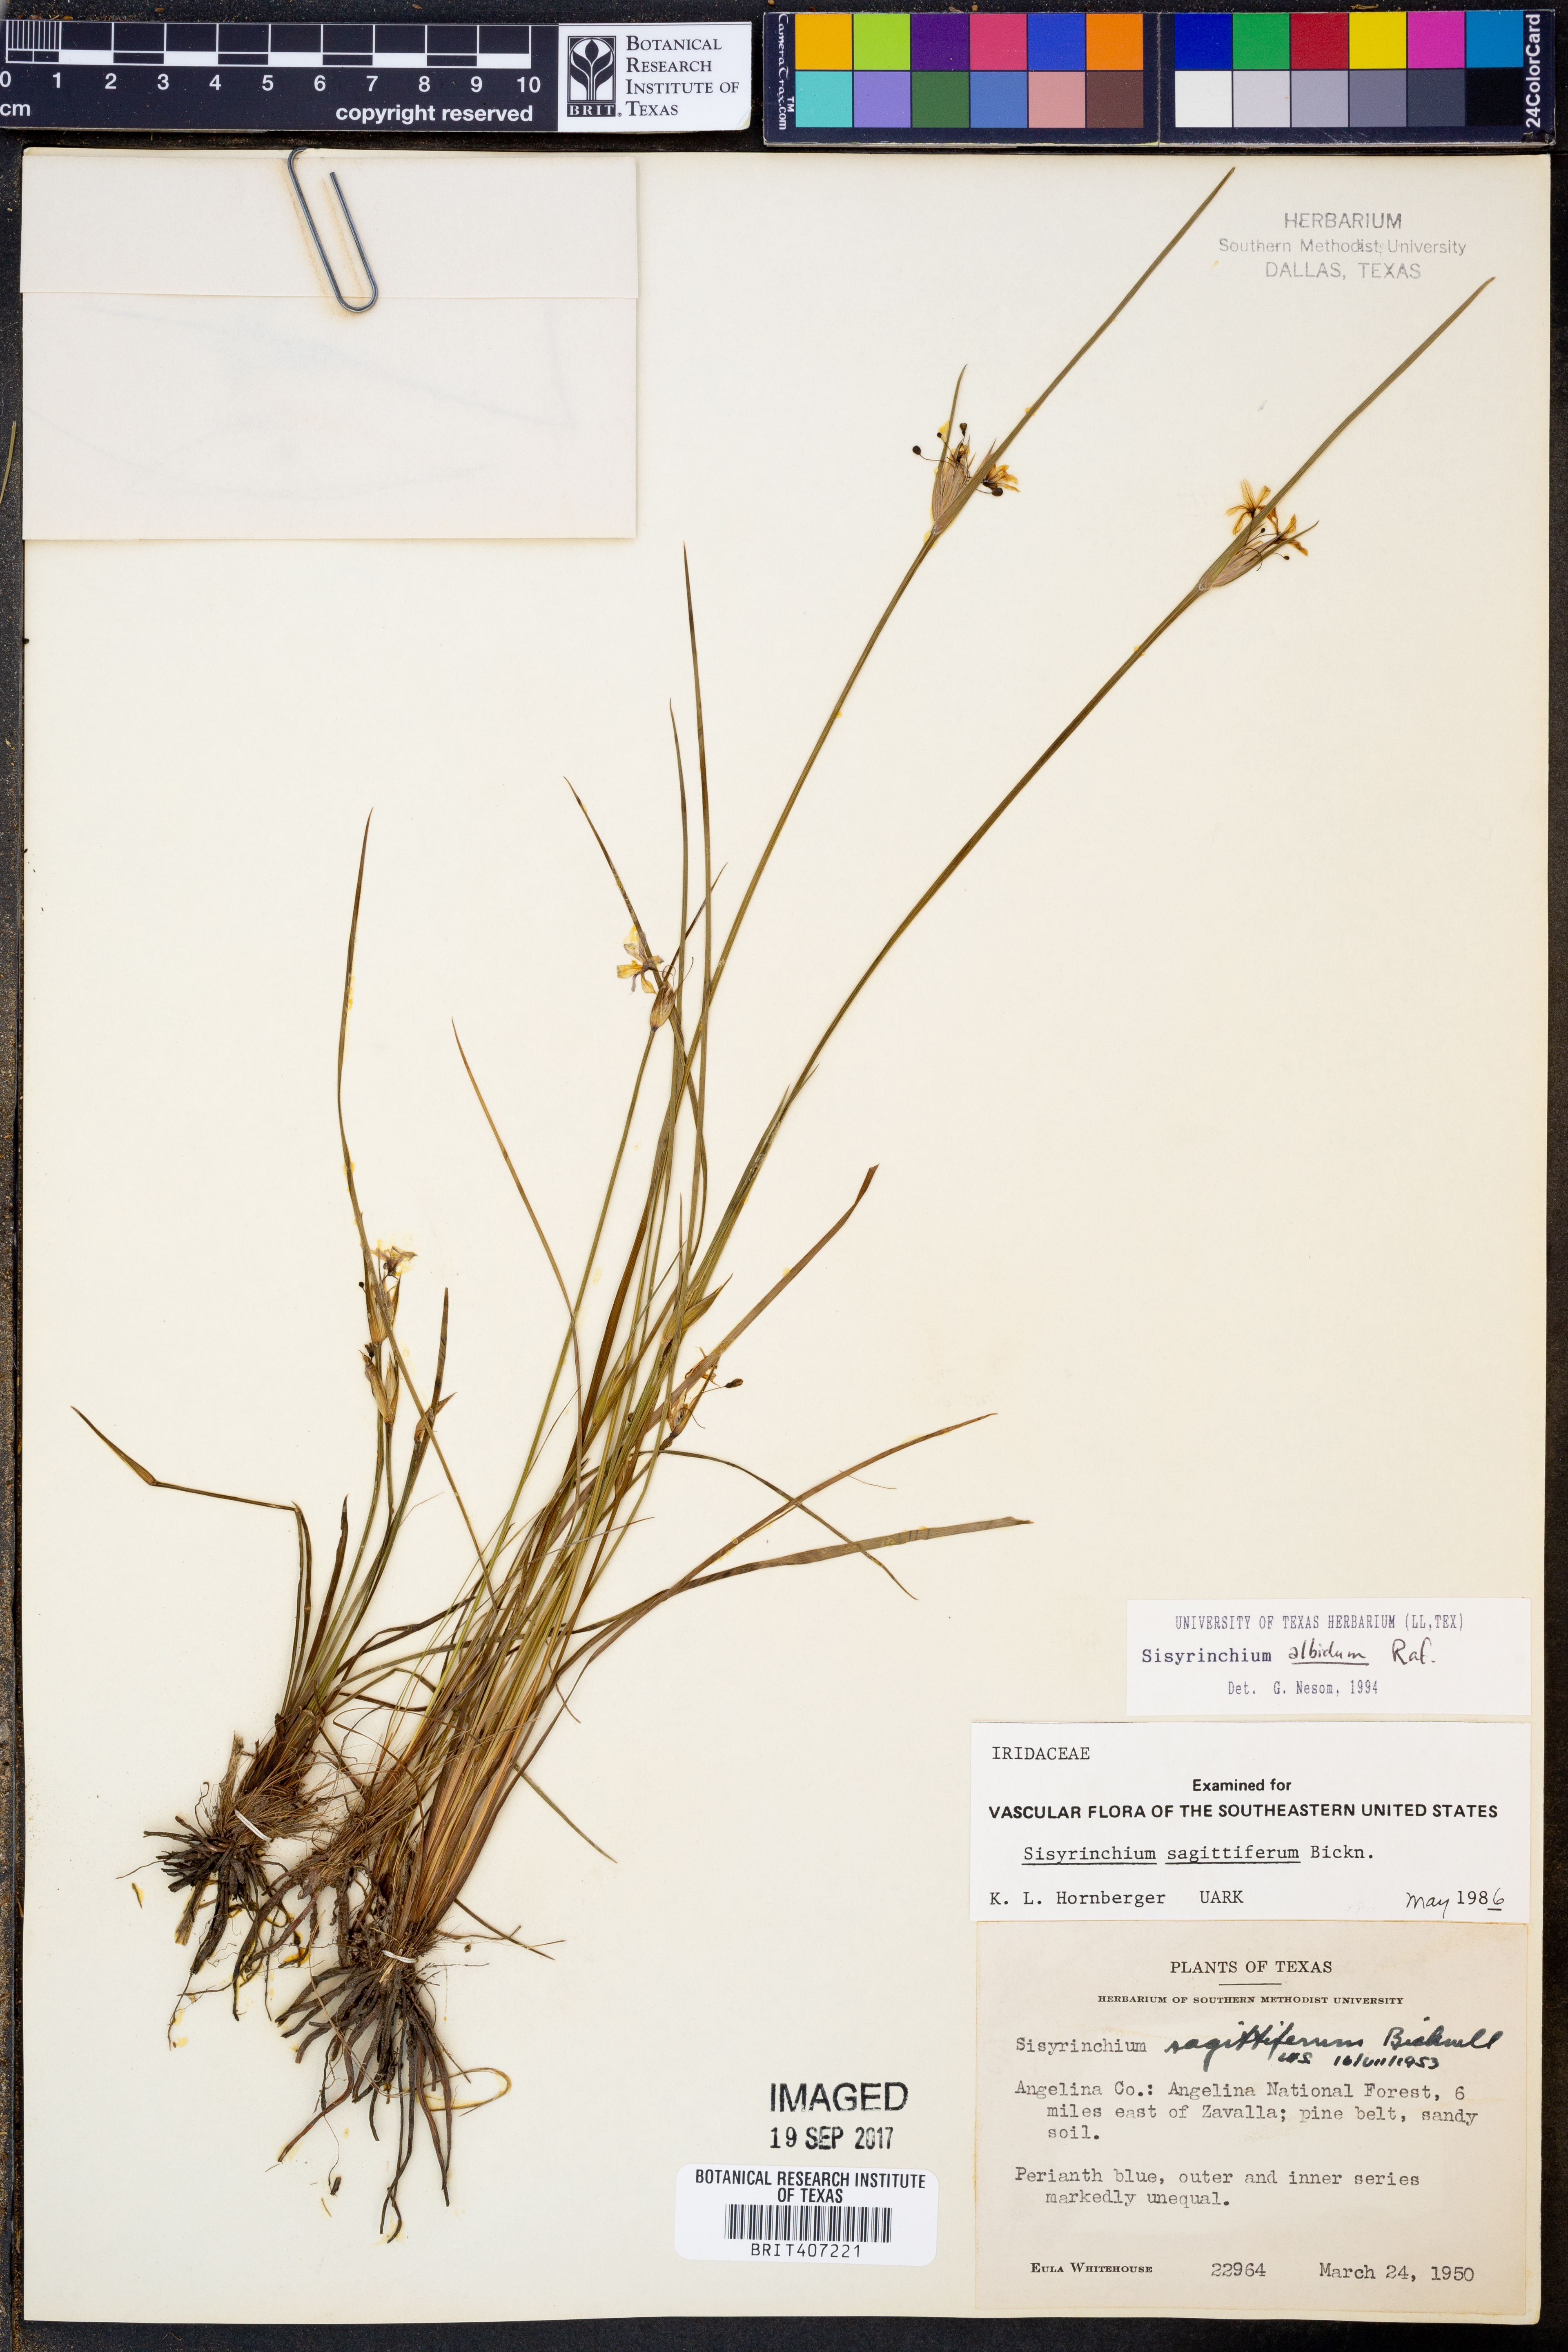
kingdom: Plantae
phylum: Tracheophyta
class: Liliopsida
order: Asparagales
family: Iridaceae
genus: Sisyrinchium
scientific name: Sisyrinchium albidum
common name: Pale blue-eyed-grass
